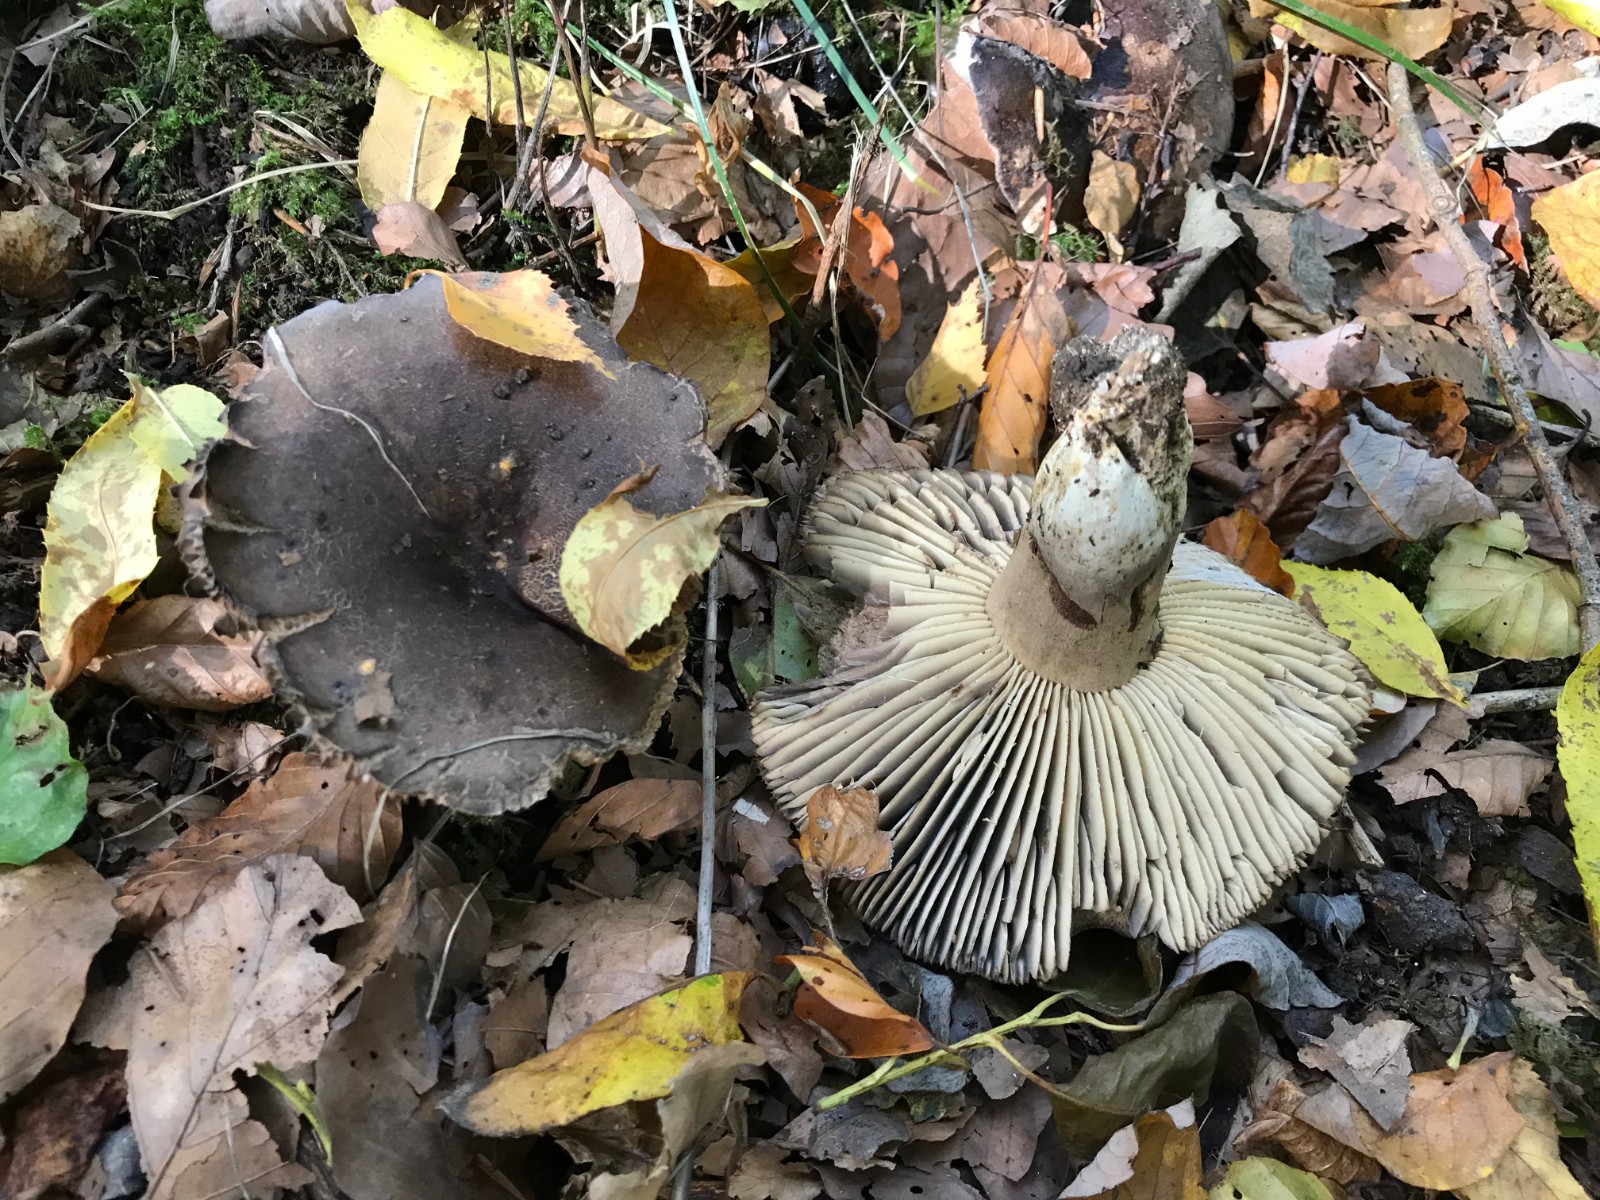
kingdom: Fungi
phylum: Basidiomycota
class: Agaricomycetes
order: Russulales
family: Russulaceae
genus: Russula
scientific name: Russula adusta
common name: sværtende skørhat
